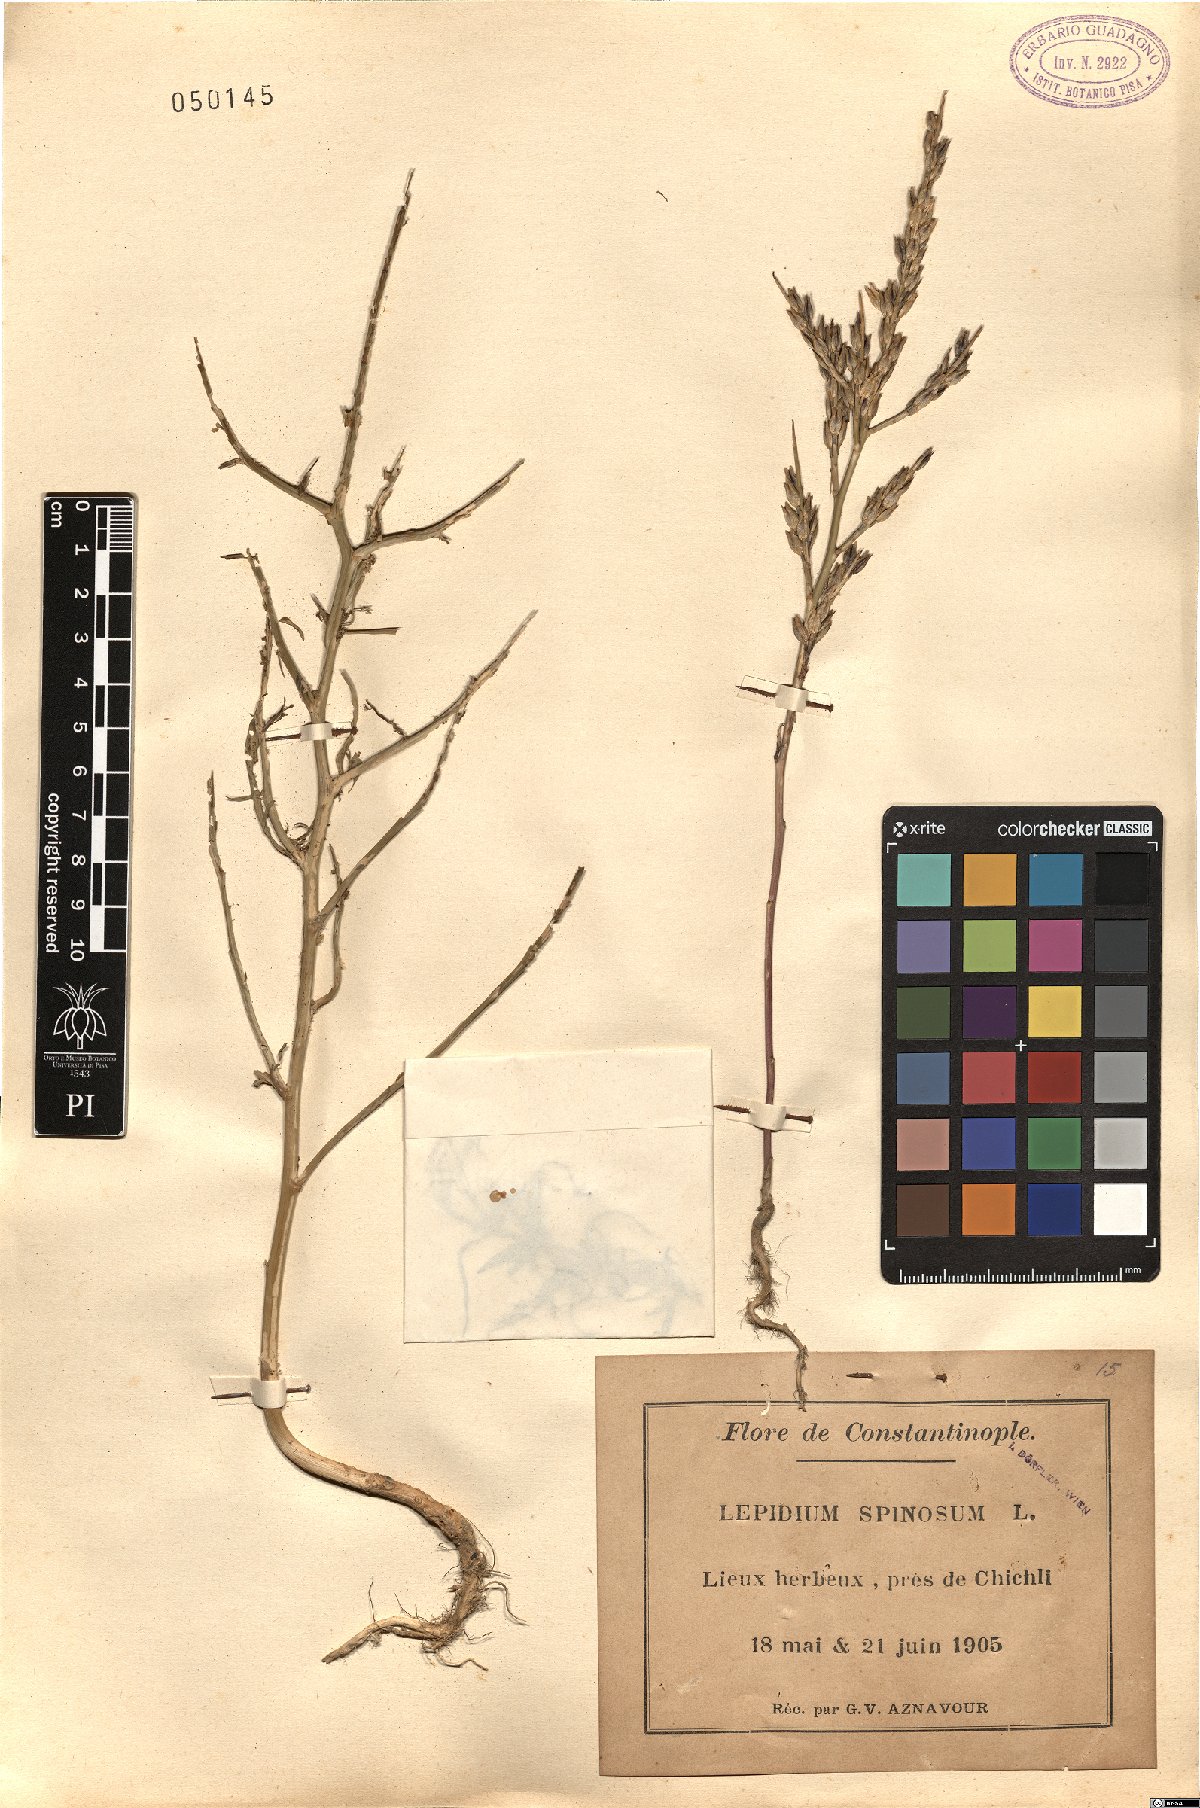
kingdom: Plantae
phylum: Tracheophyta
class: Magnoliopsida
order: Brassicales
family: Brassicaceae
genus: Lepidium
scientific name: Lepidium spinosum
